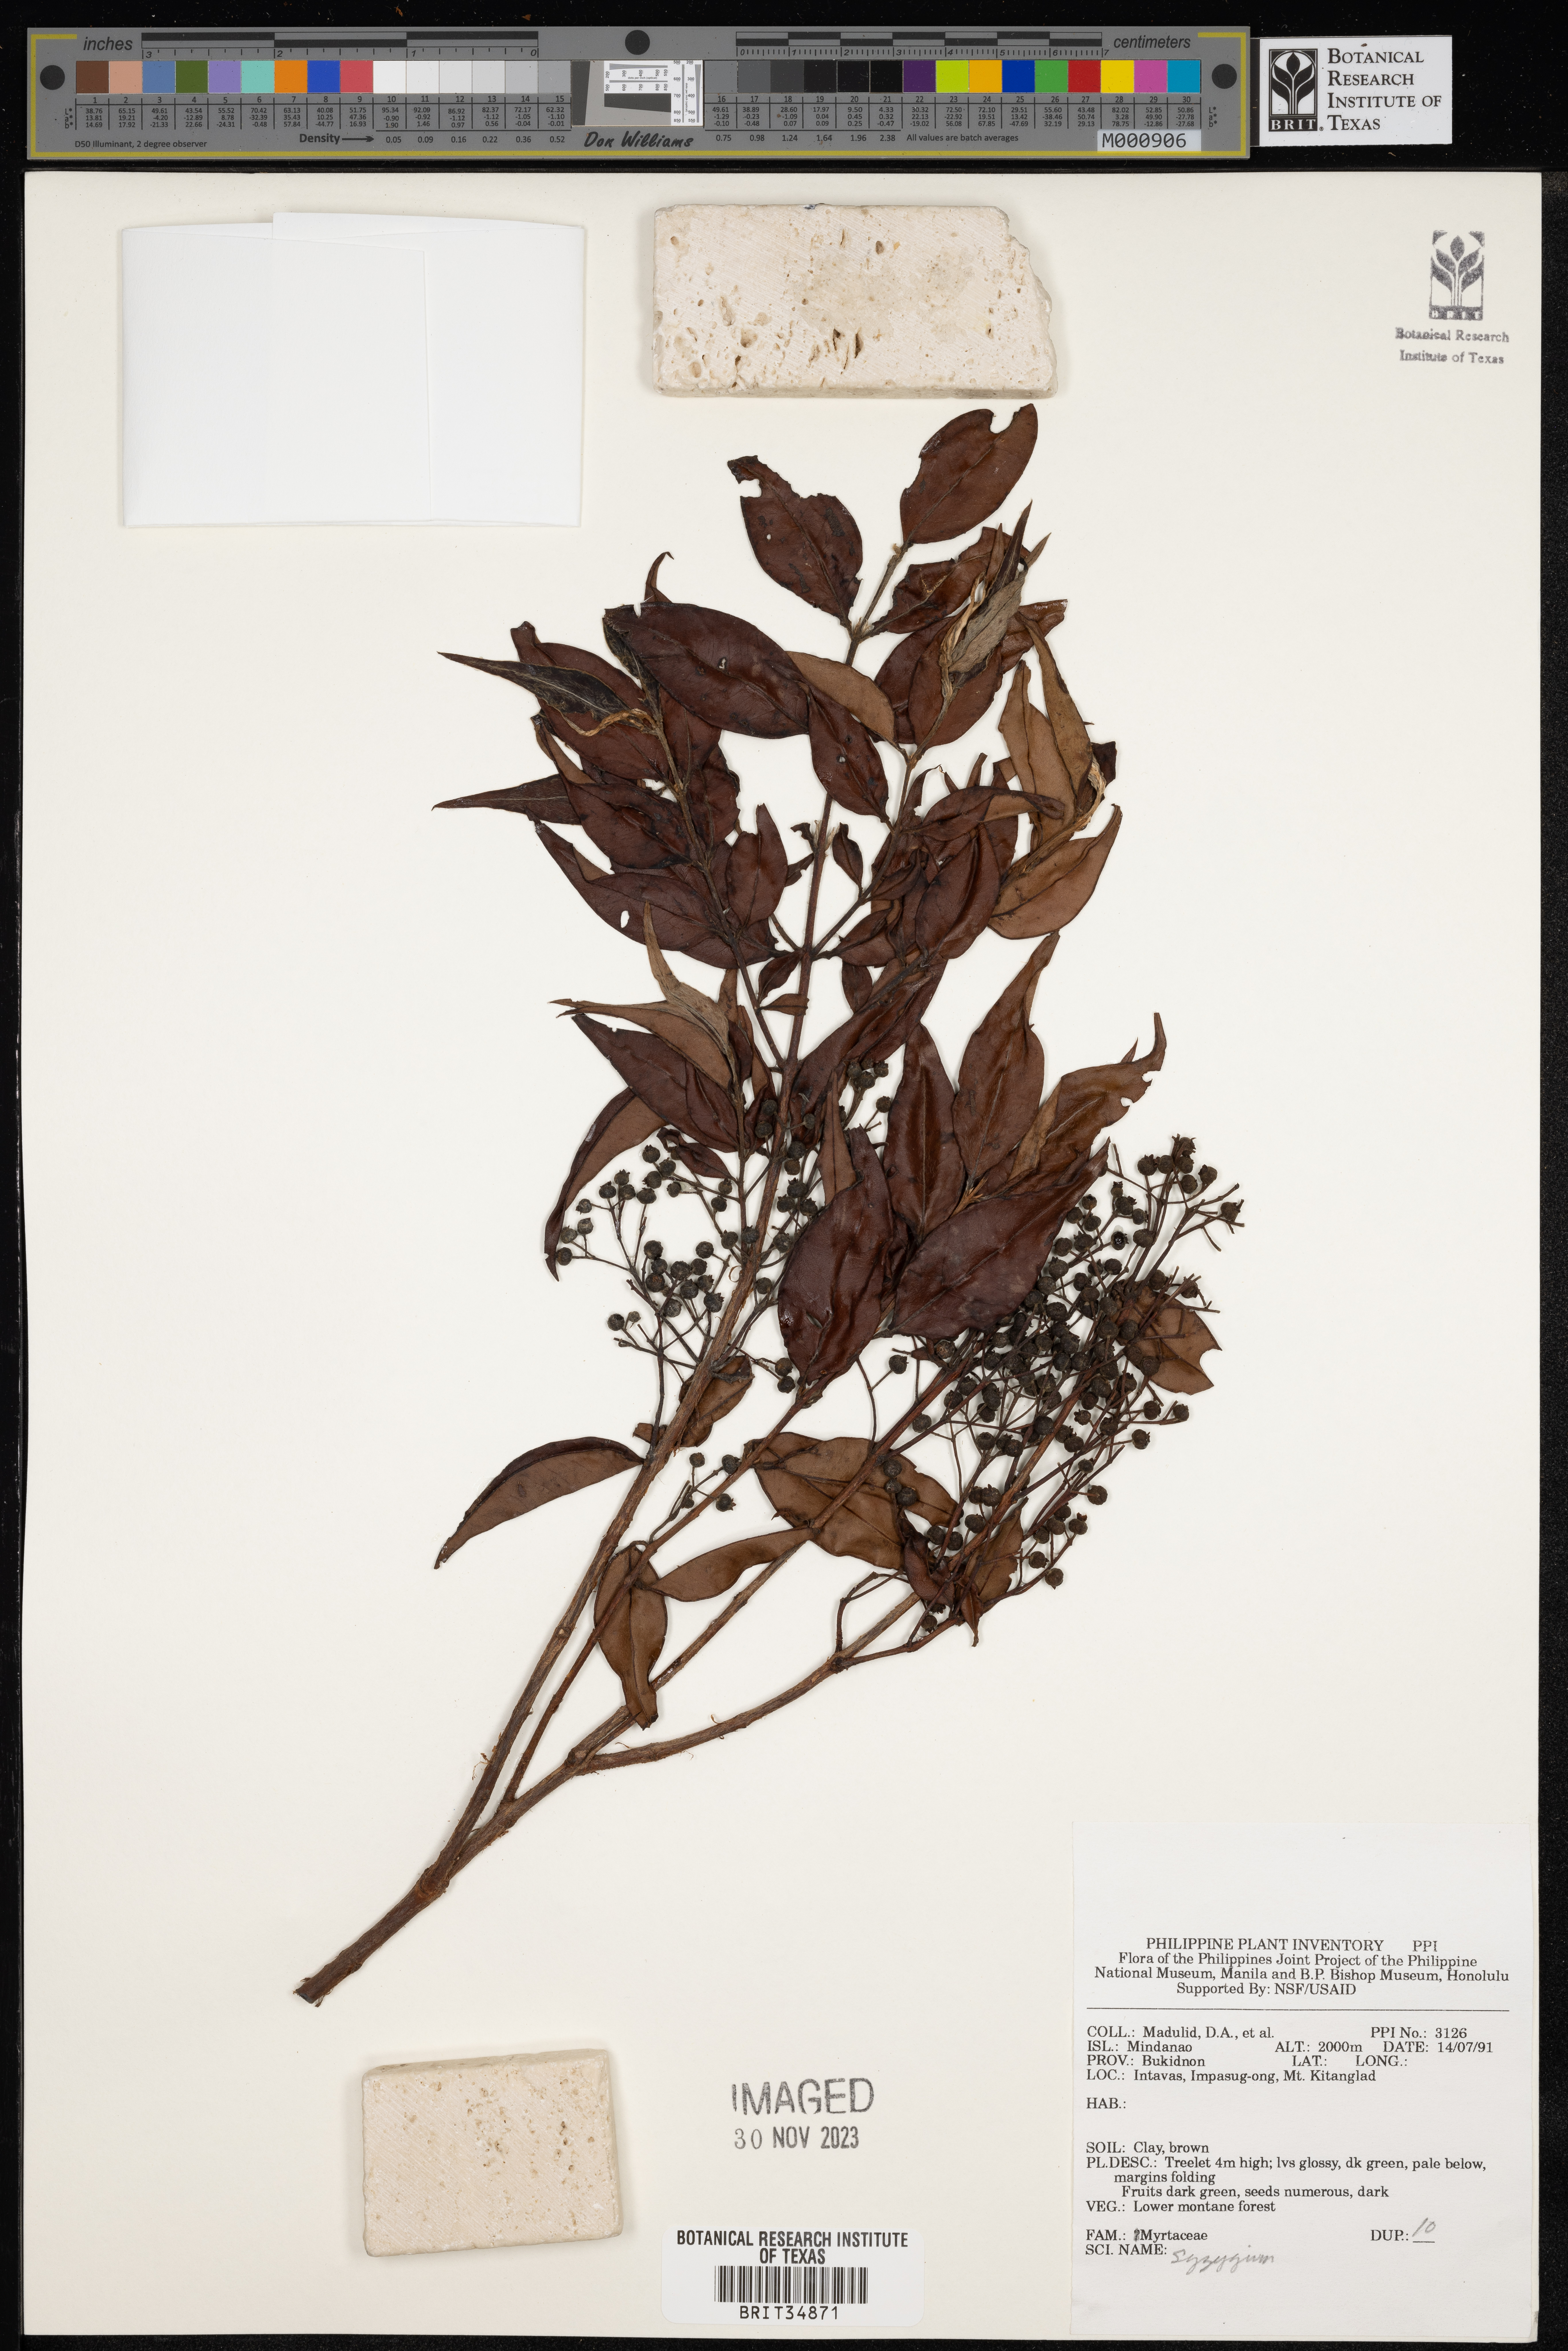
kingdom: Plantae
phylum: Tracheophyta
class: Magnoliopsida
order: Myrtales
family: Myrtaceae
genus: Syzygium
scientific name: Syzygium
